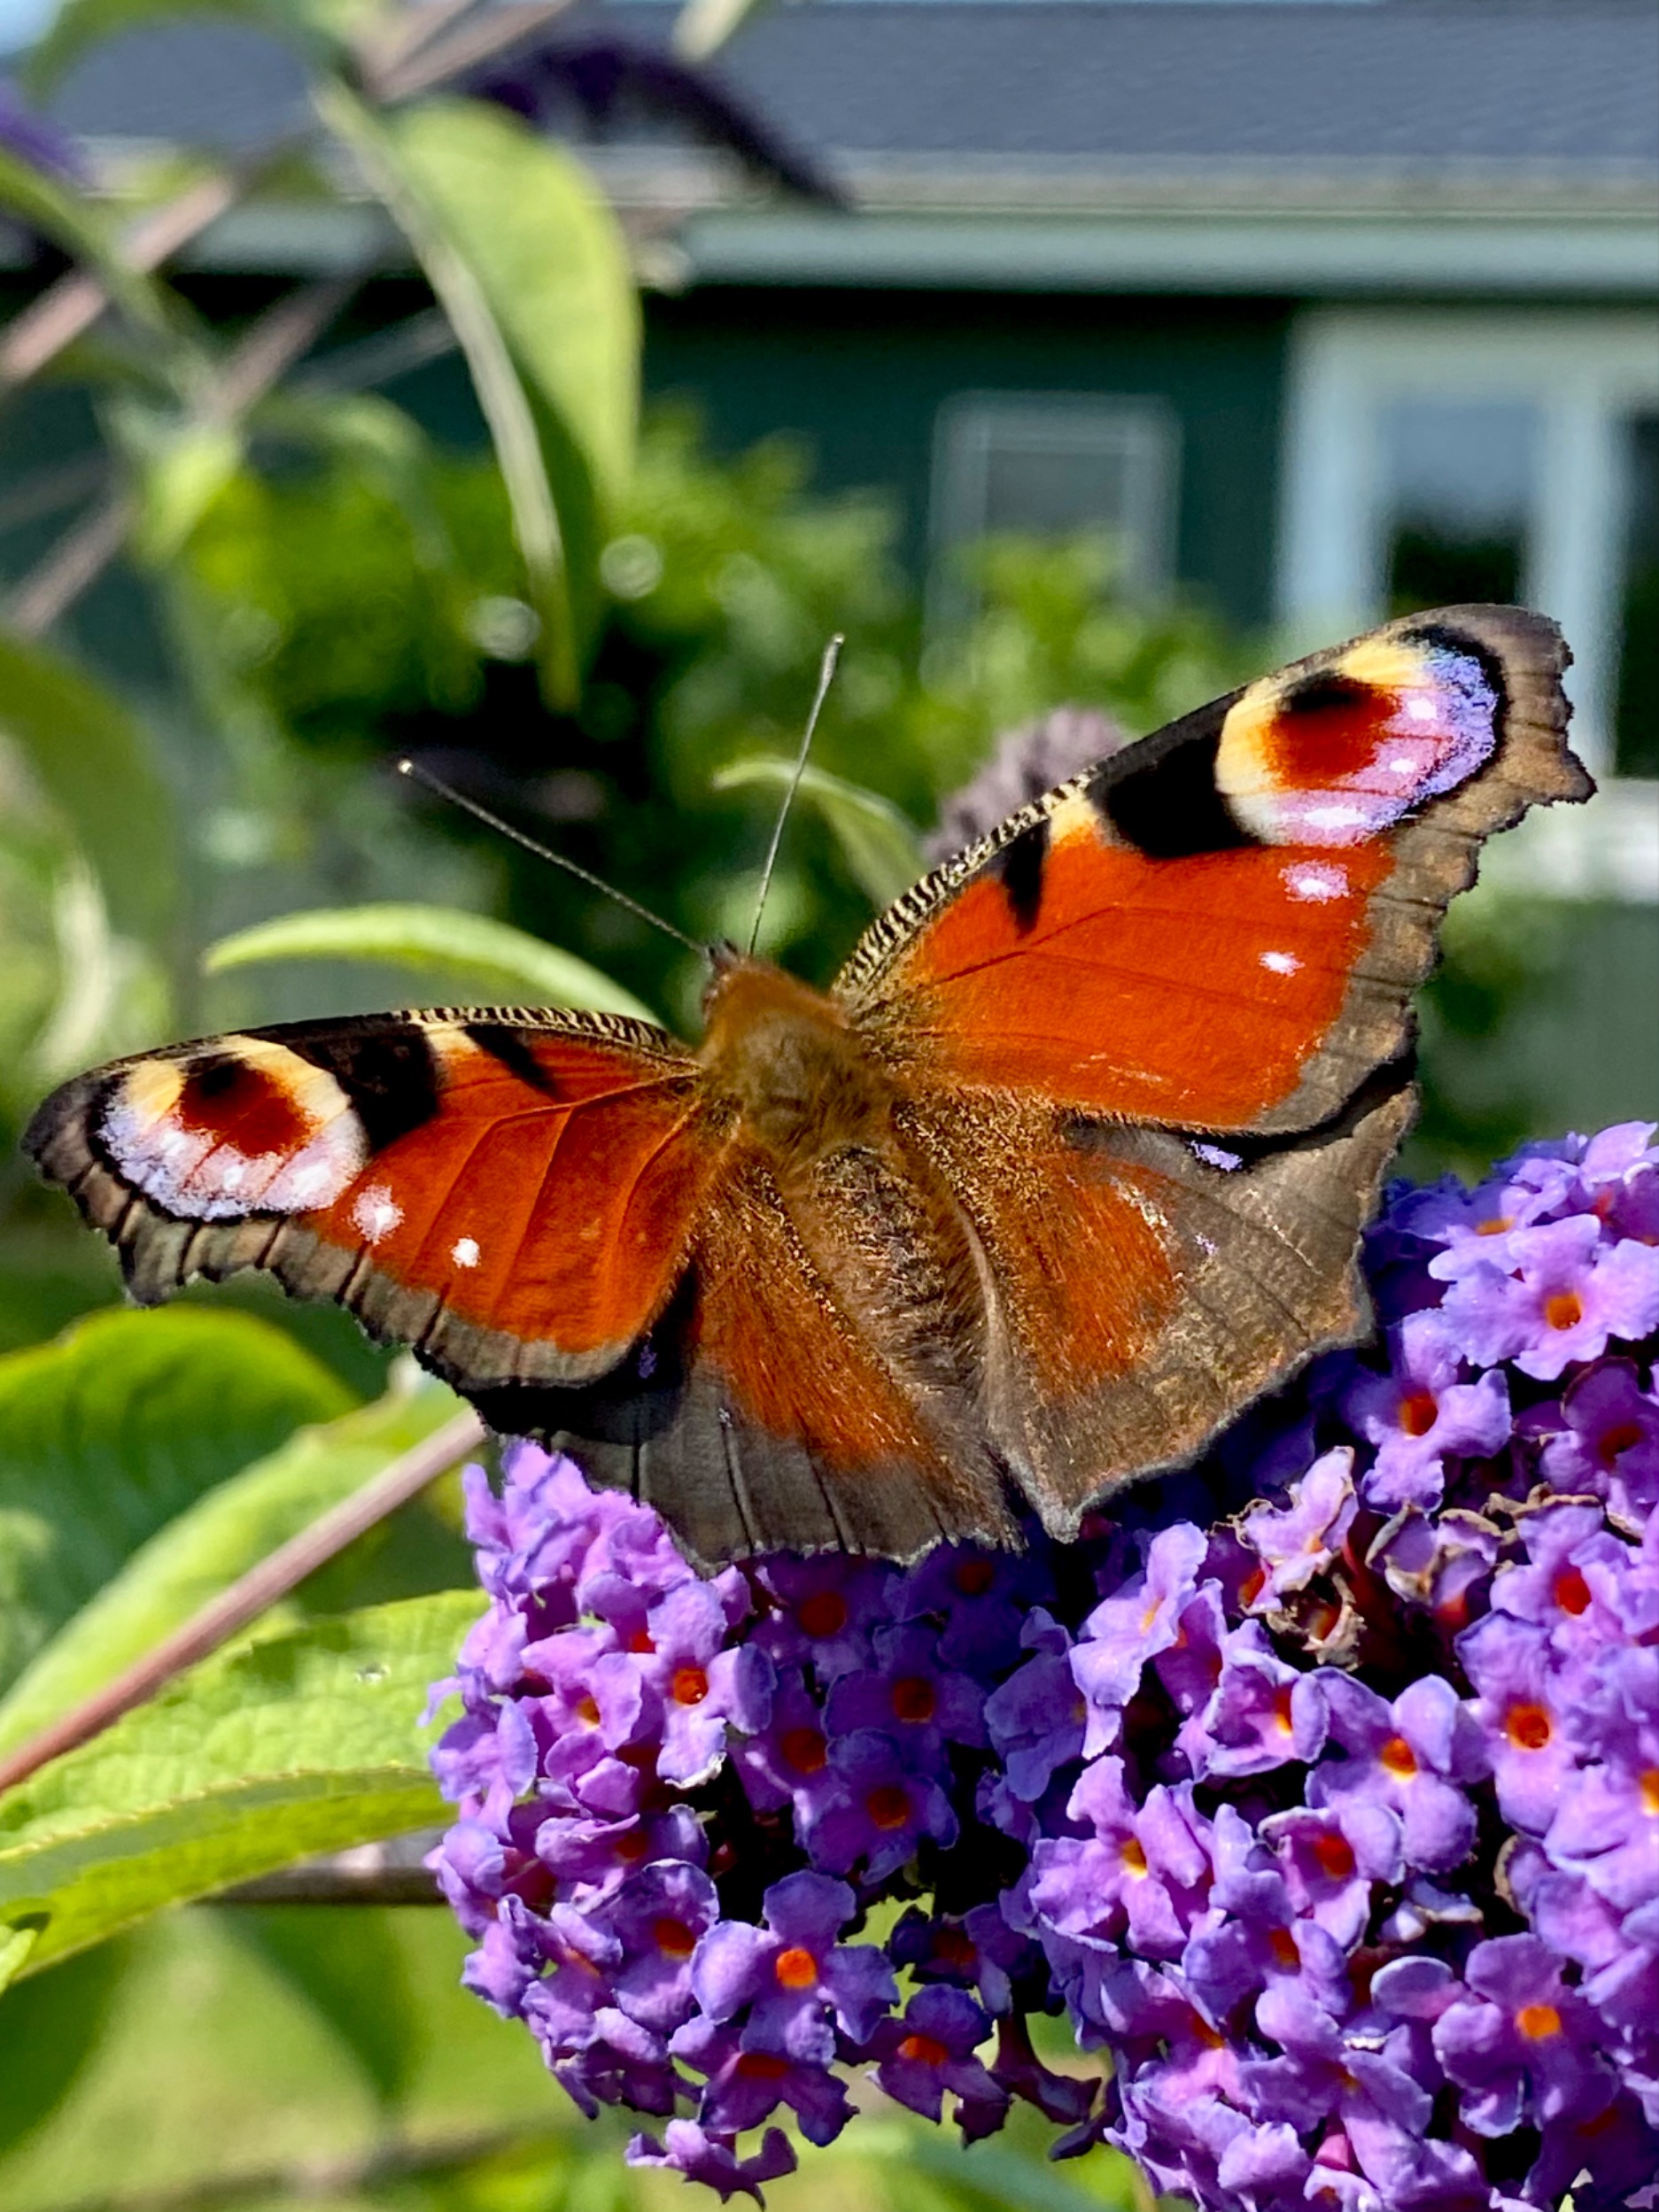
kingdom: Animalia
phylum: Arthropoda
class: Insecta
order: Lepidoptera
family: Nymphalidae
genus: Aglais
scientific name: Aglais io
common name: Dagpåfugleøje
